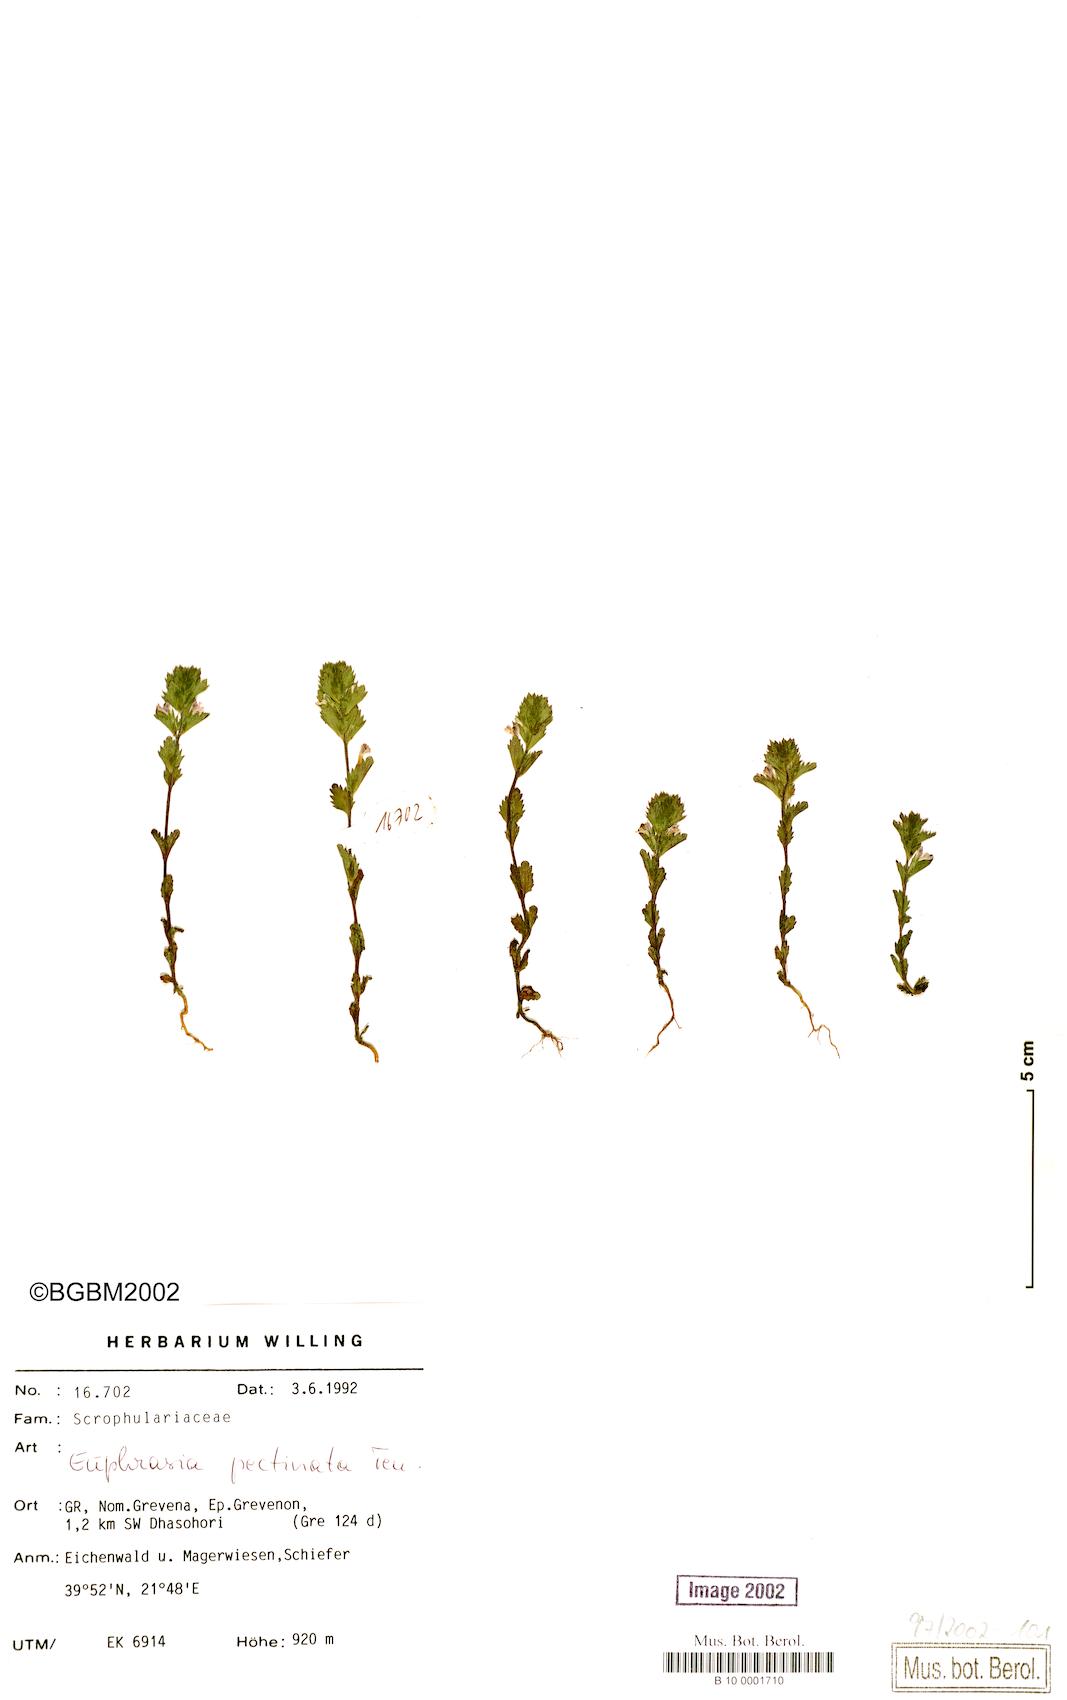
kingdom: Plantae
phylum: Tracheophyta
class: Magnoliopsida
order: Lamiales
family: Orobanchaceae
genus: Euphrasia
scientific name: Euphrasia pectinata
